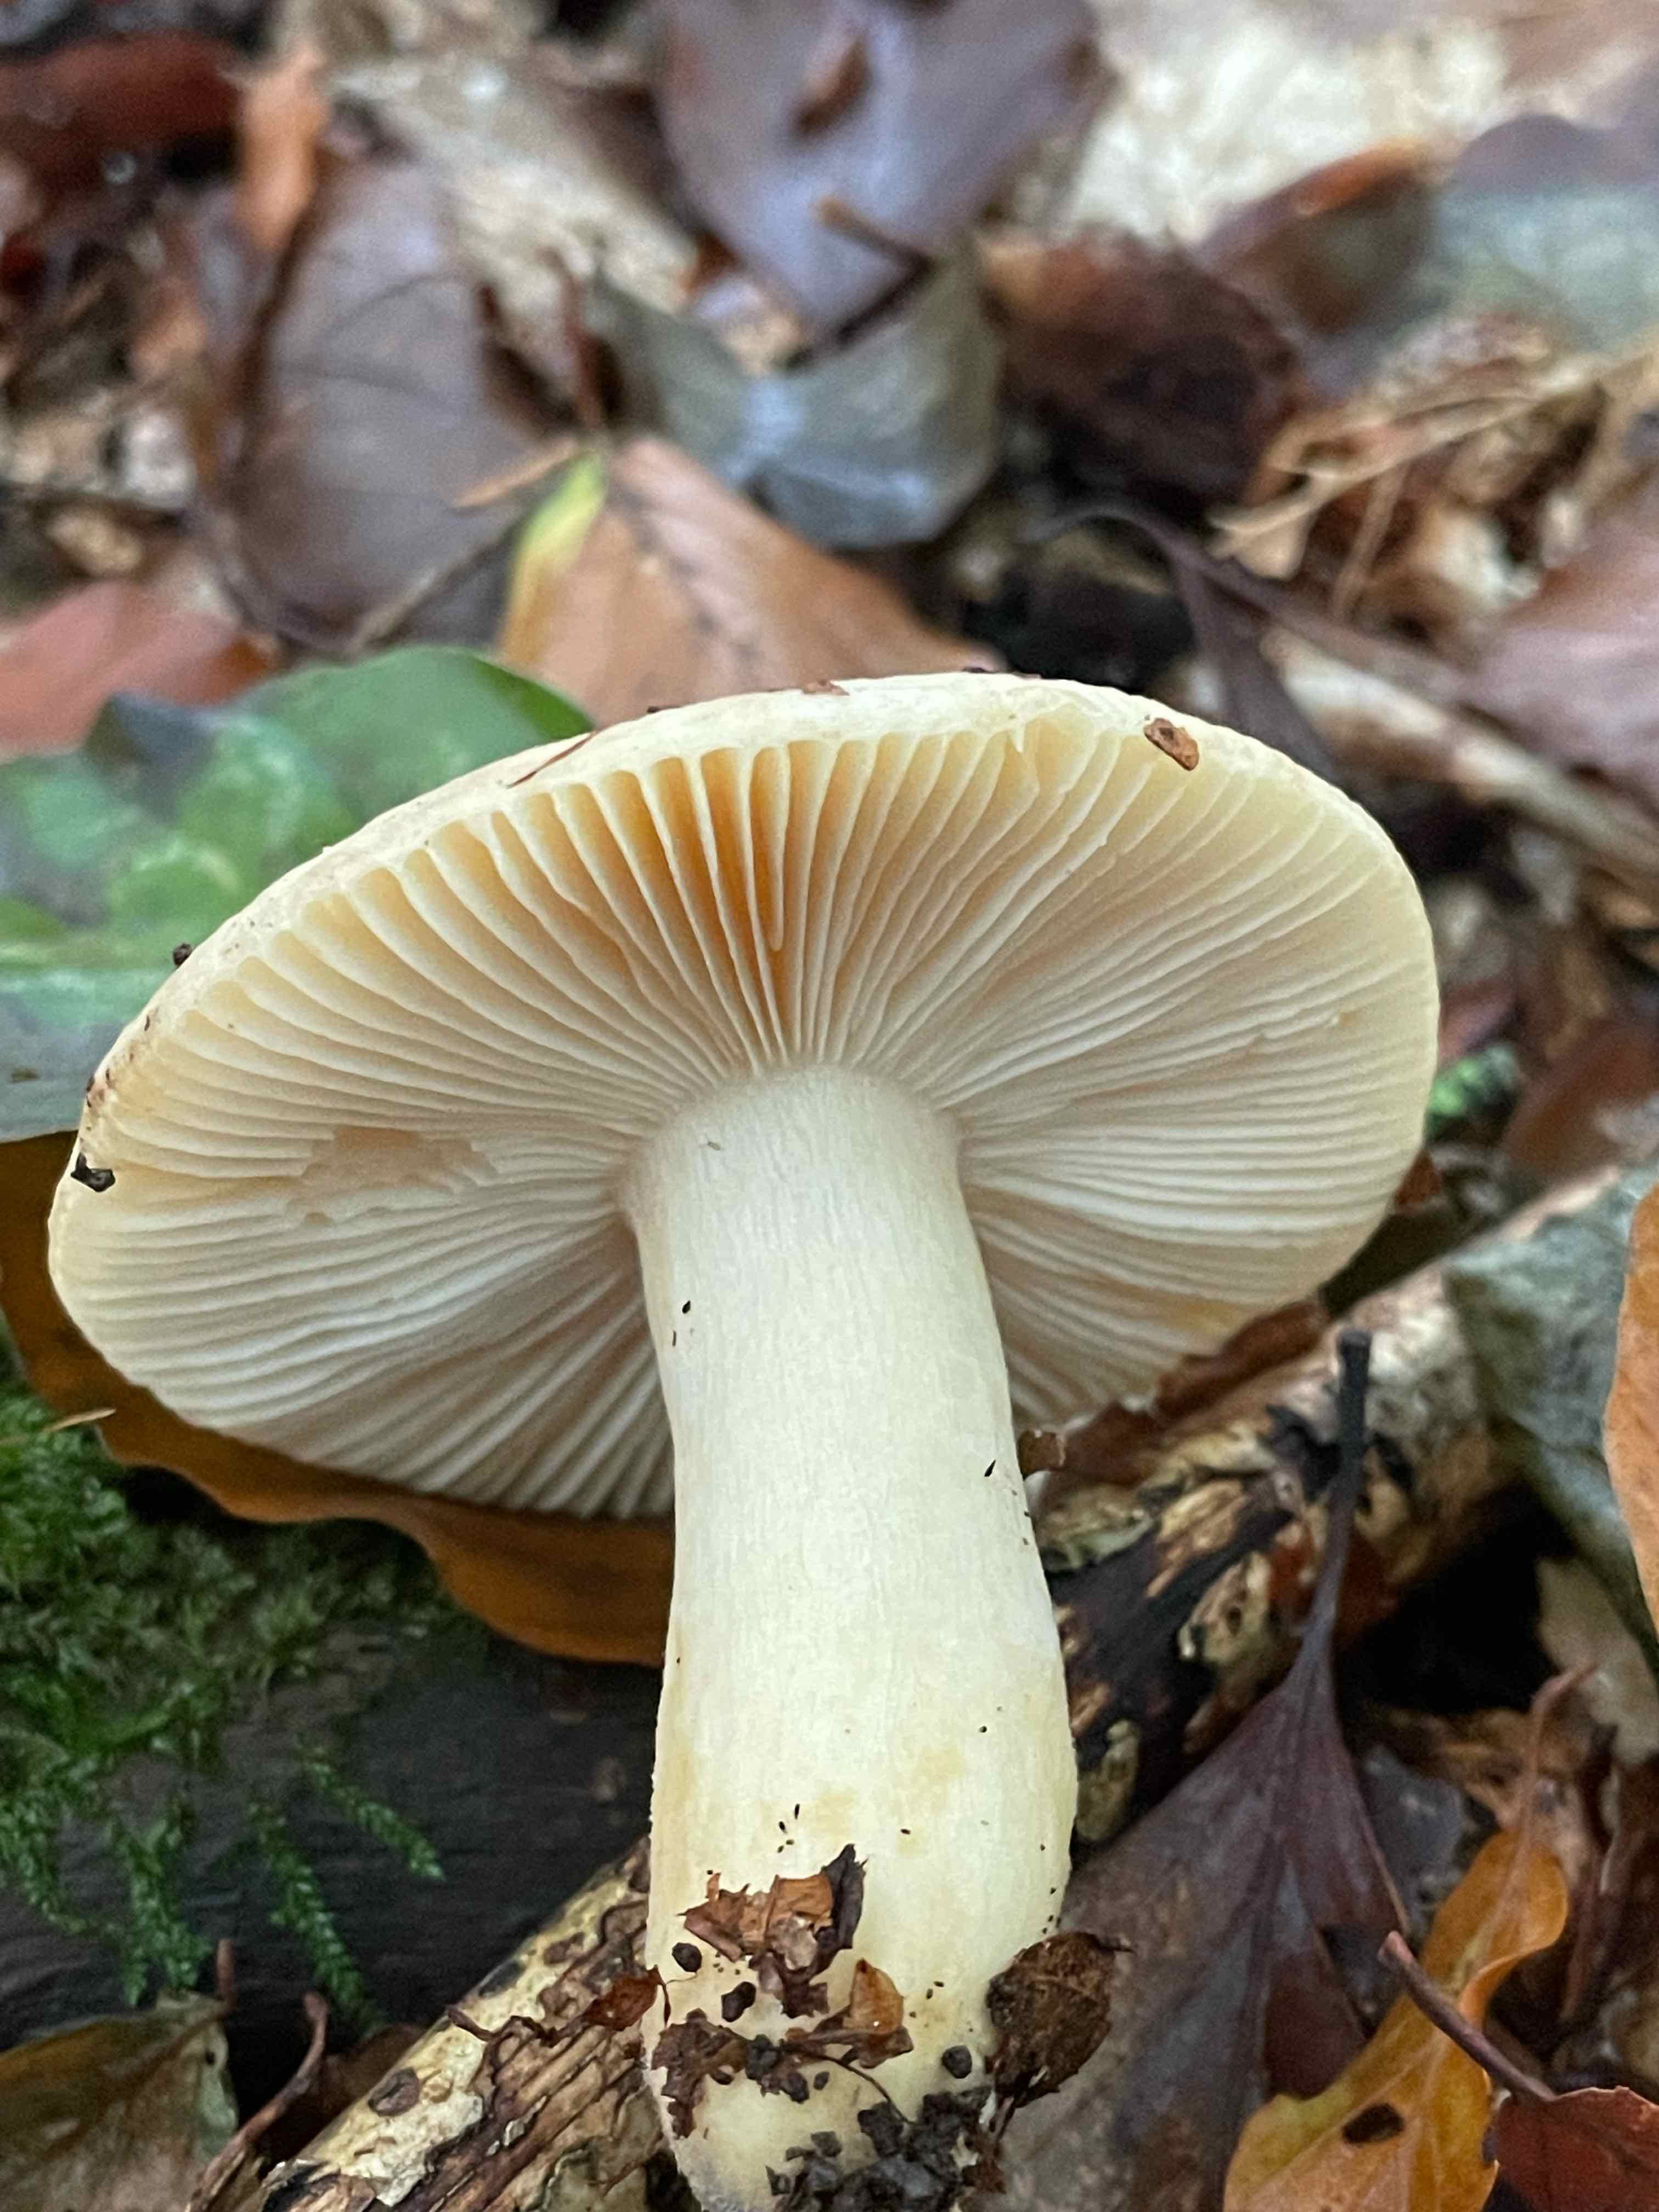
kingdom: Fungi
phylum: Basidiomycota
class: Agaricomycetes
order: Russulales
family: Russulaceae
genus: Russula
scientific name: Russula fellea
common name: galde-skørhat
